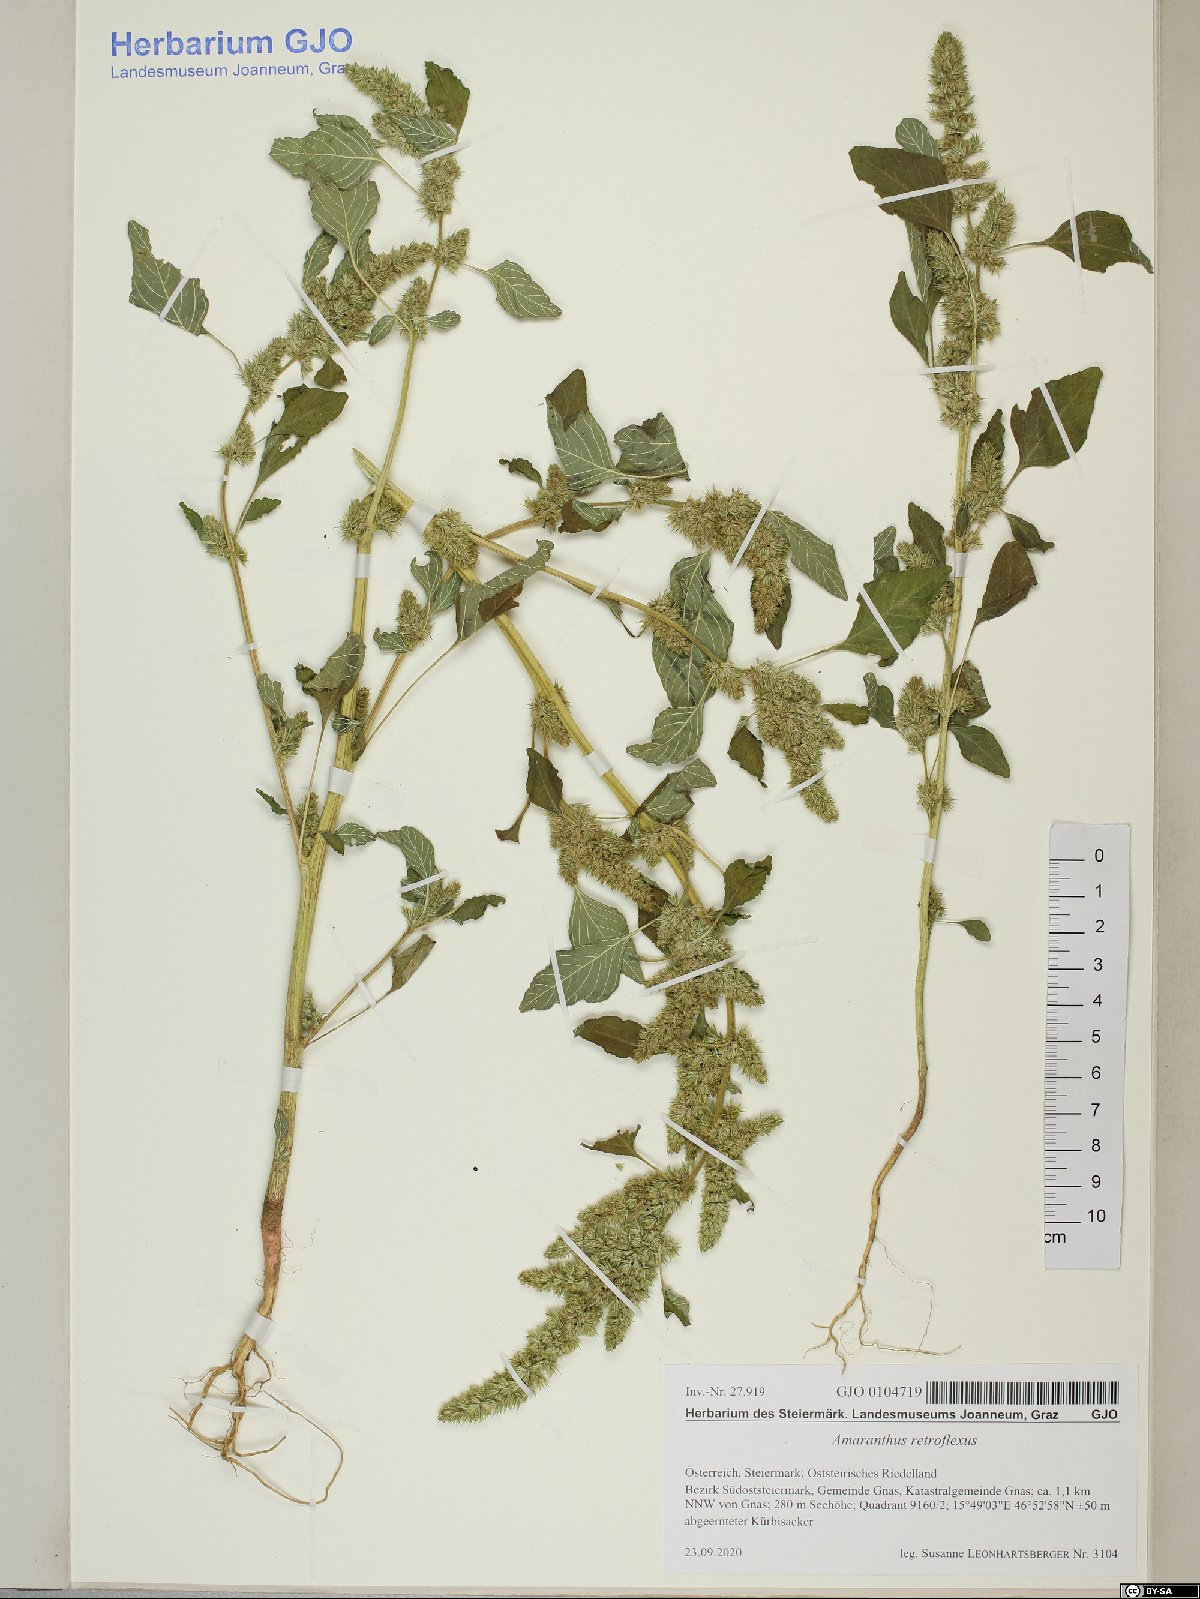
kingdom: Plantae
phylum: Tracheophyta
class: Magnoliopsida
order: Caryophyllales
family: Amaranthaceae
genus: Amaranthus
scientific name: Amaranthus retroflexus
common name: Redroot amaranth
